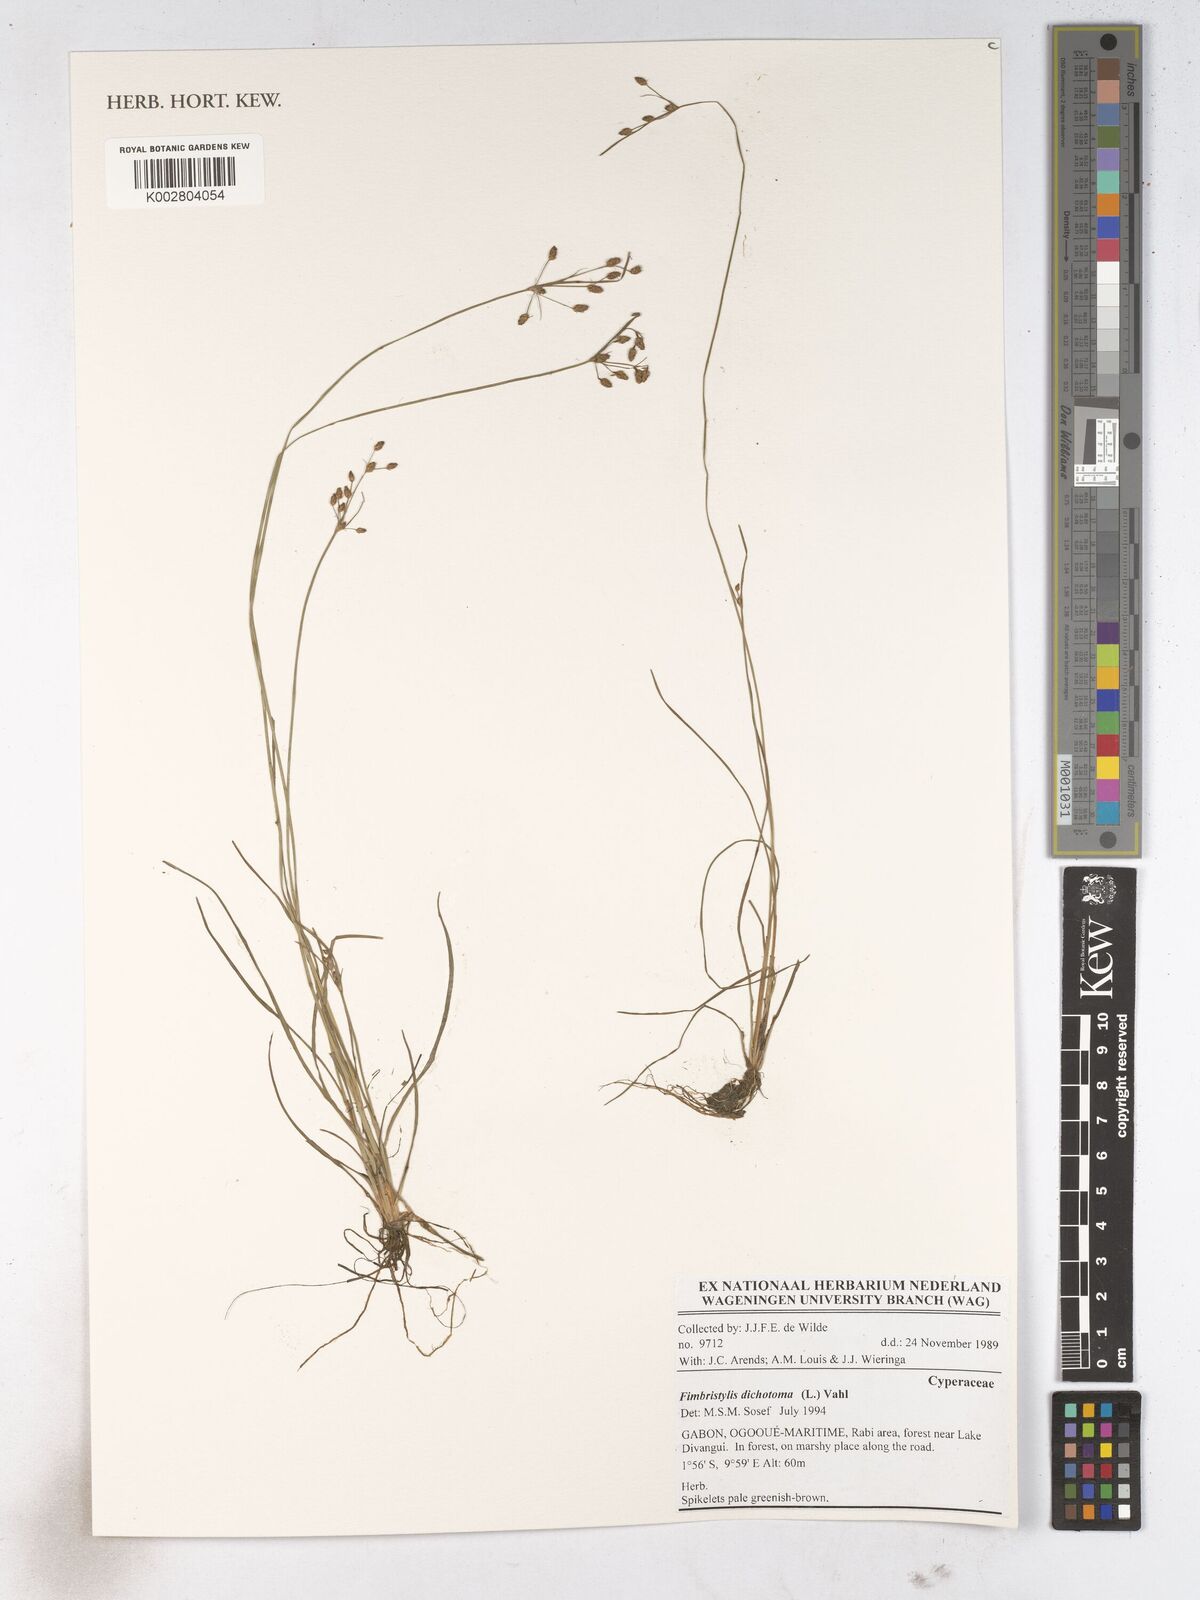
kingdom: Plantae
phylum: Tracheophyta
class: Liliopsida
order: Poales
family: Cyperaceae
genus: Fimbristylis
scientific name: Fimbristylis dichotoma
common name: Forked fimbry
